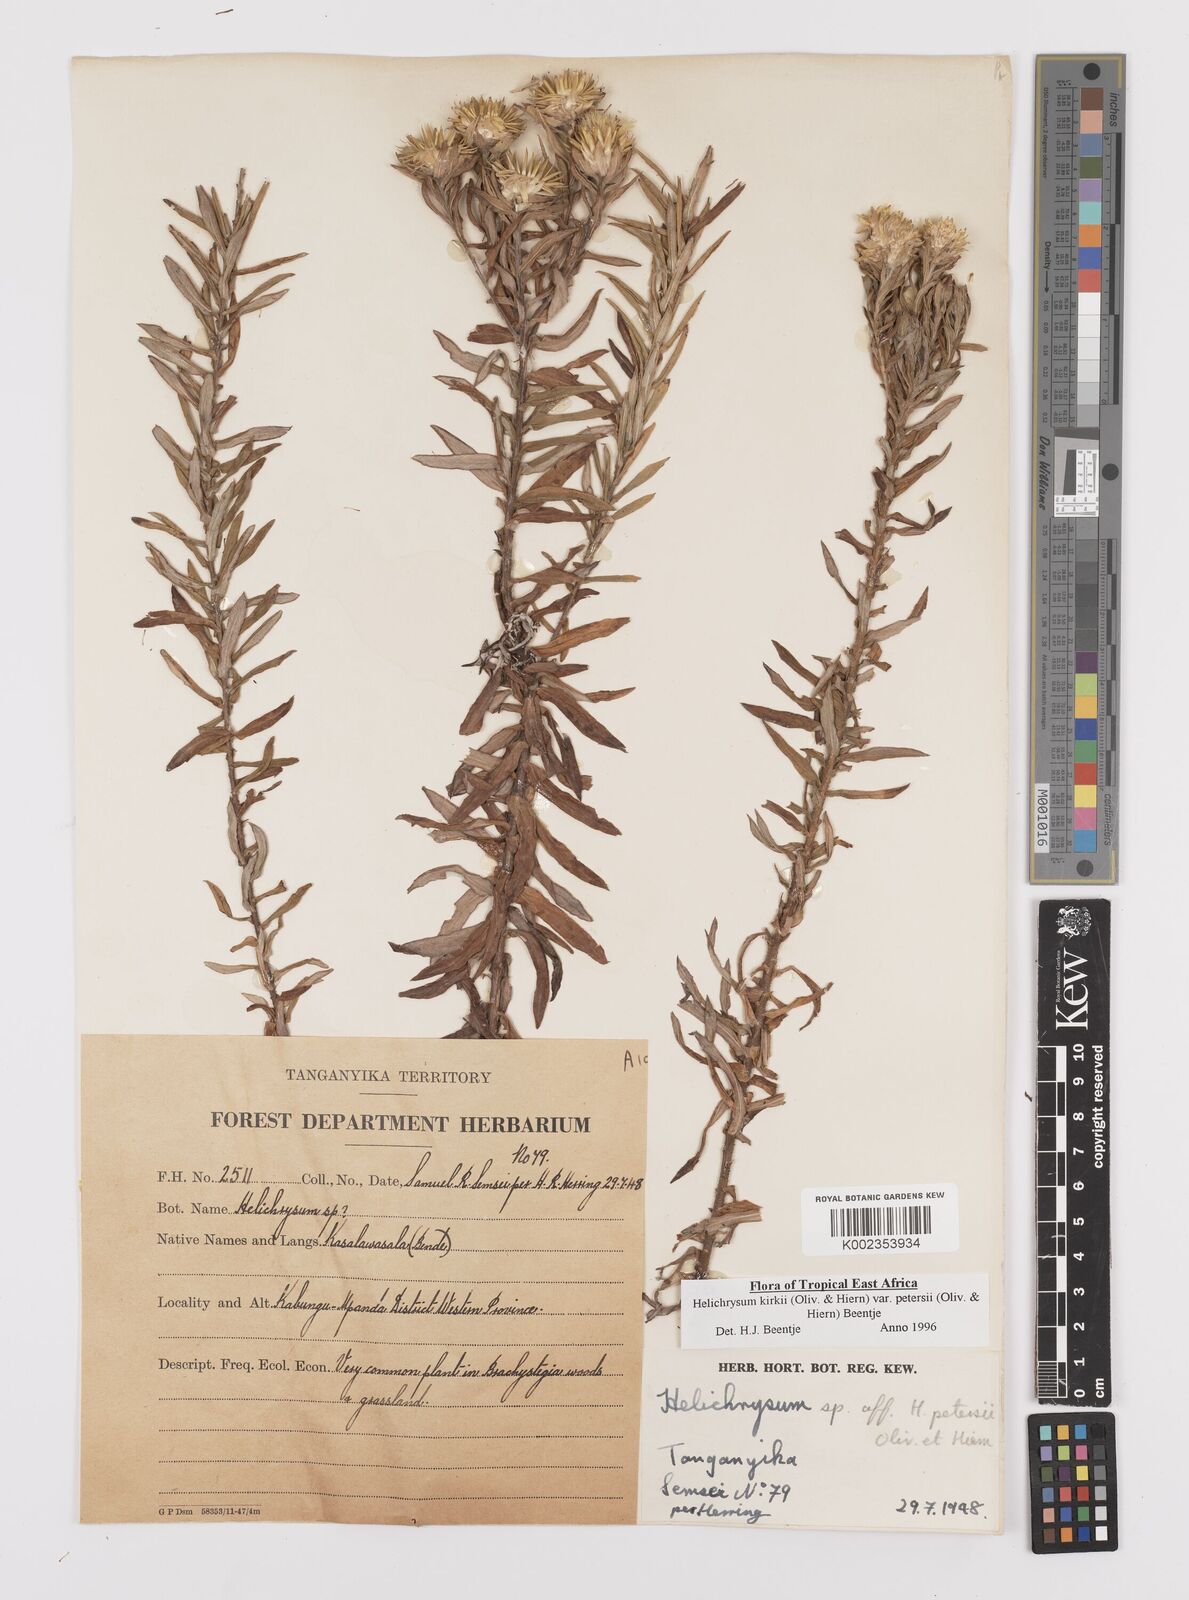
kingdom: Plantae
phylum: Tracheophyta
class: Magnoliopsida
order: Asterales
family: Asteraceae
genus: Helichrysum
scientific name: Helichrysum kirkii
